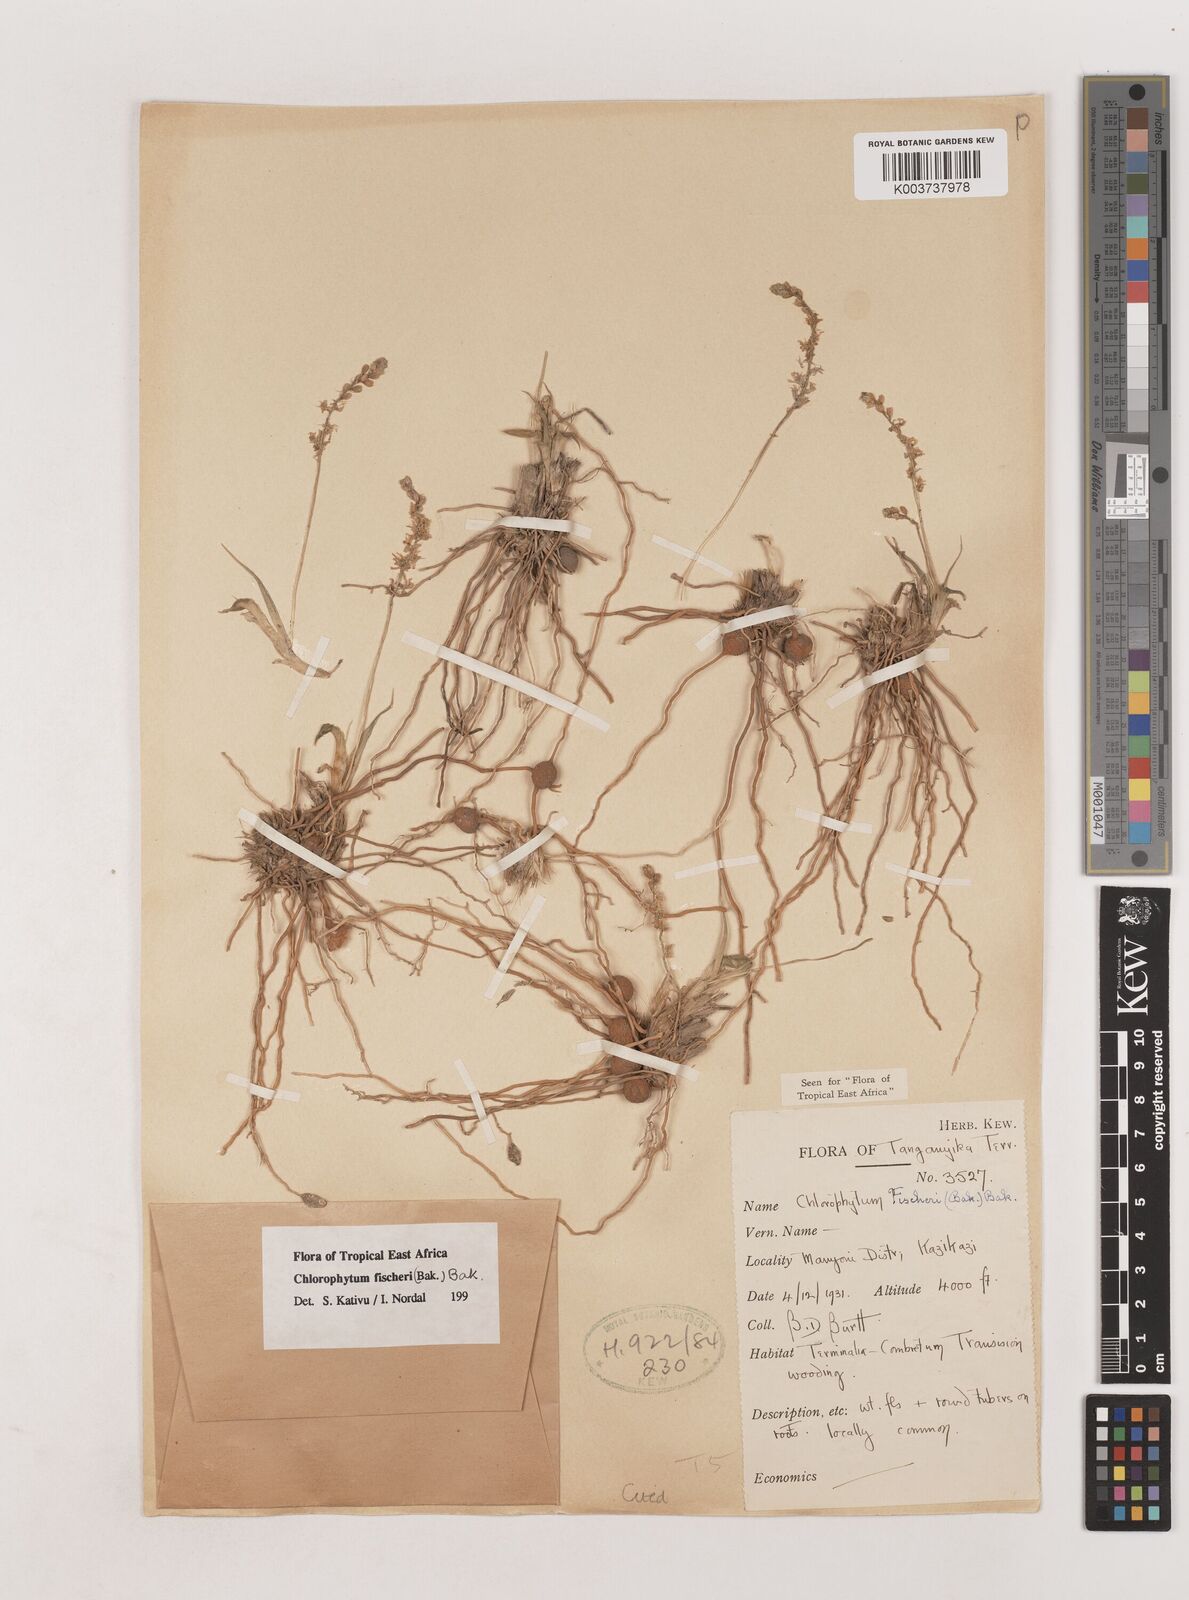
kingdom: Plantae
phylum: Tracheophyta
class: Liliopsida
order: Asparagales
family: Asparagaceae
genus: Chlorophytum
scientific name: Chlorophytum fischeri
